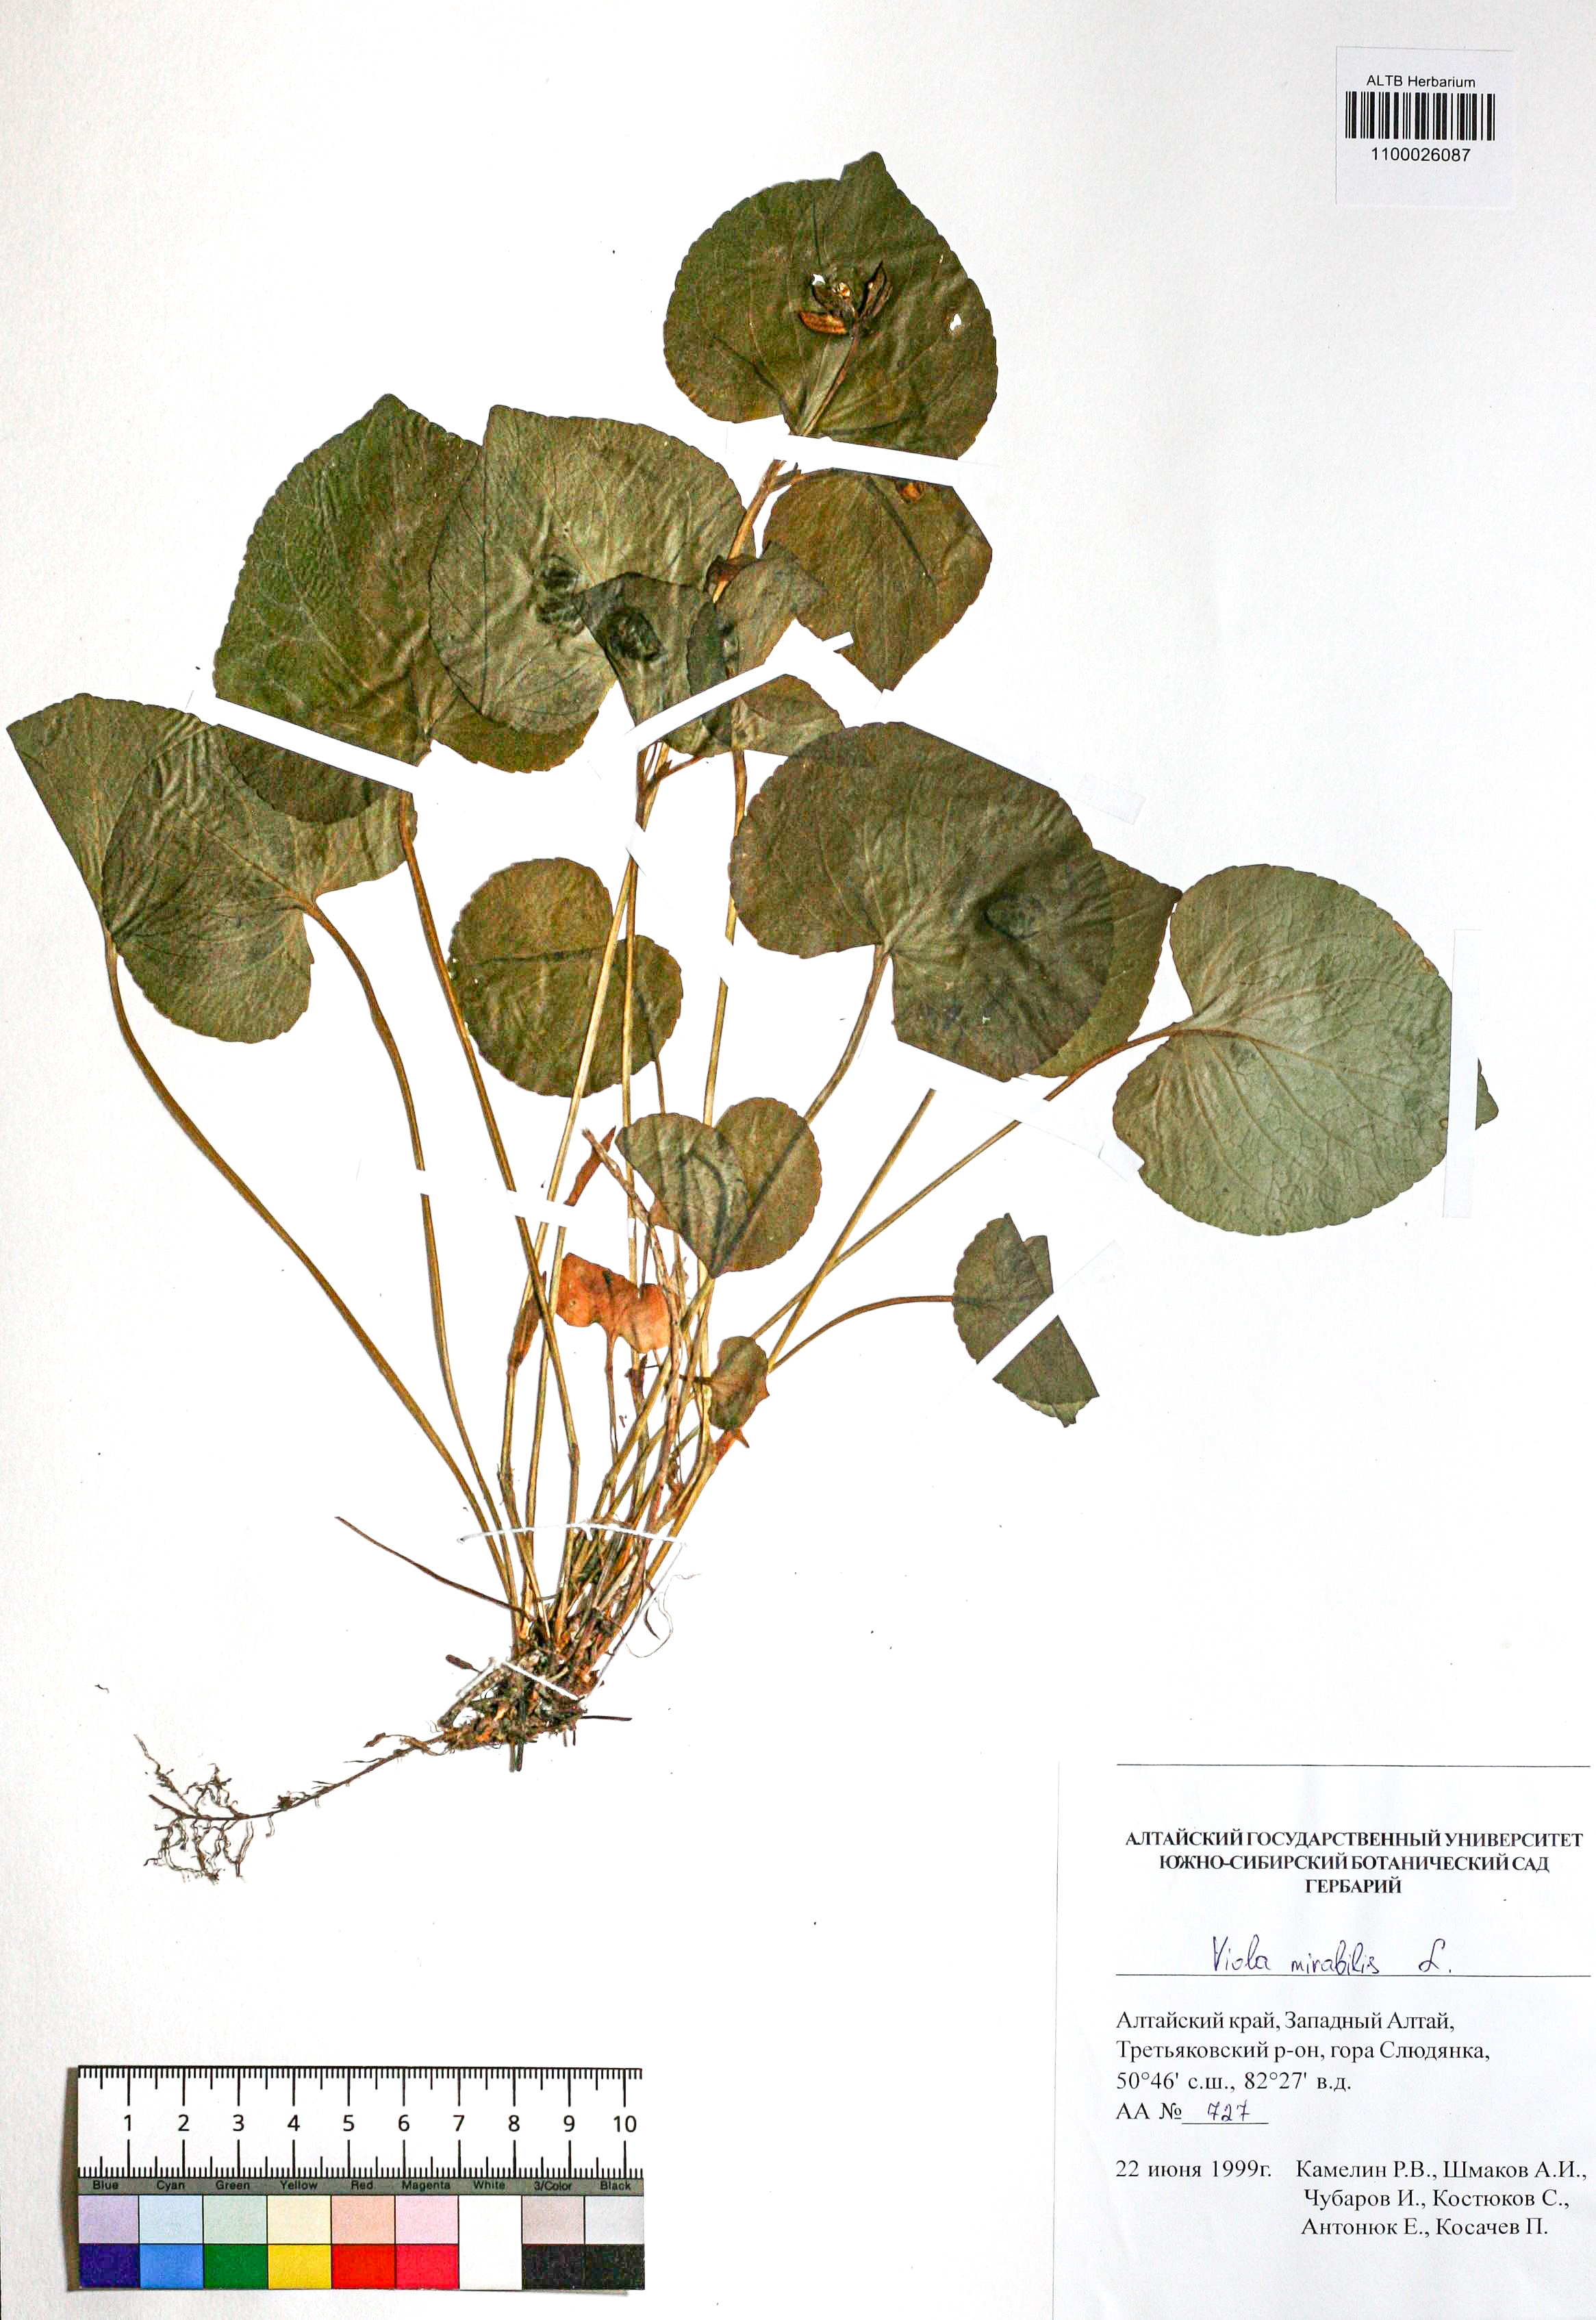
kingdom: Plantae
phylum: Tracheophyta
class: Magnoliopsida
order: Malpighiales
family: Violaceae
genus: Viola
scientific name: Viola mirabilis
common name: Wonder violet
